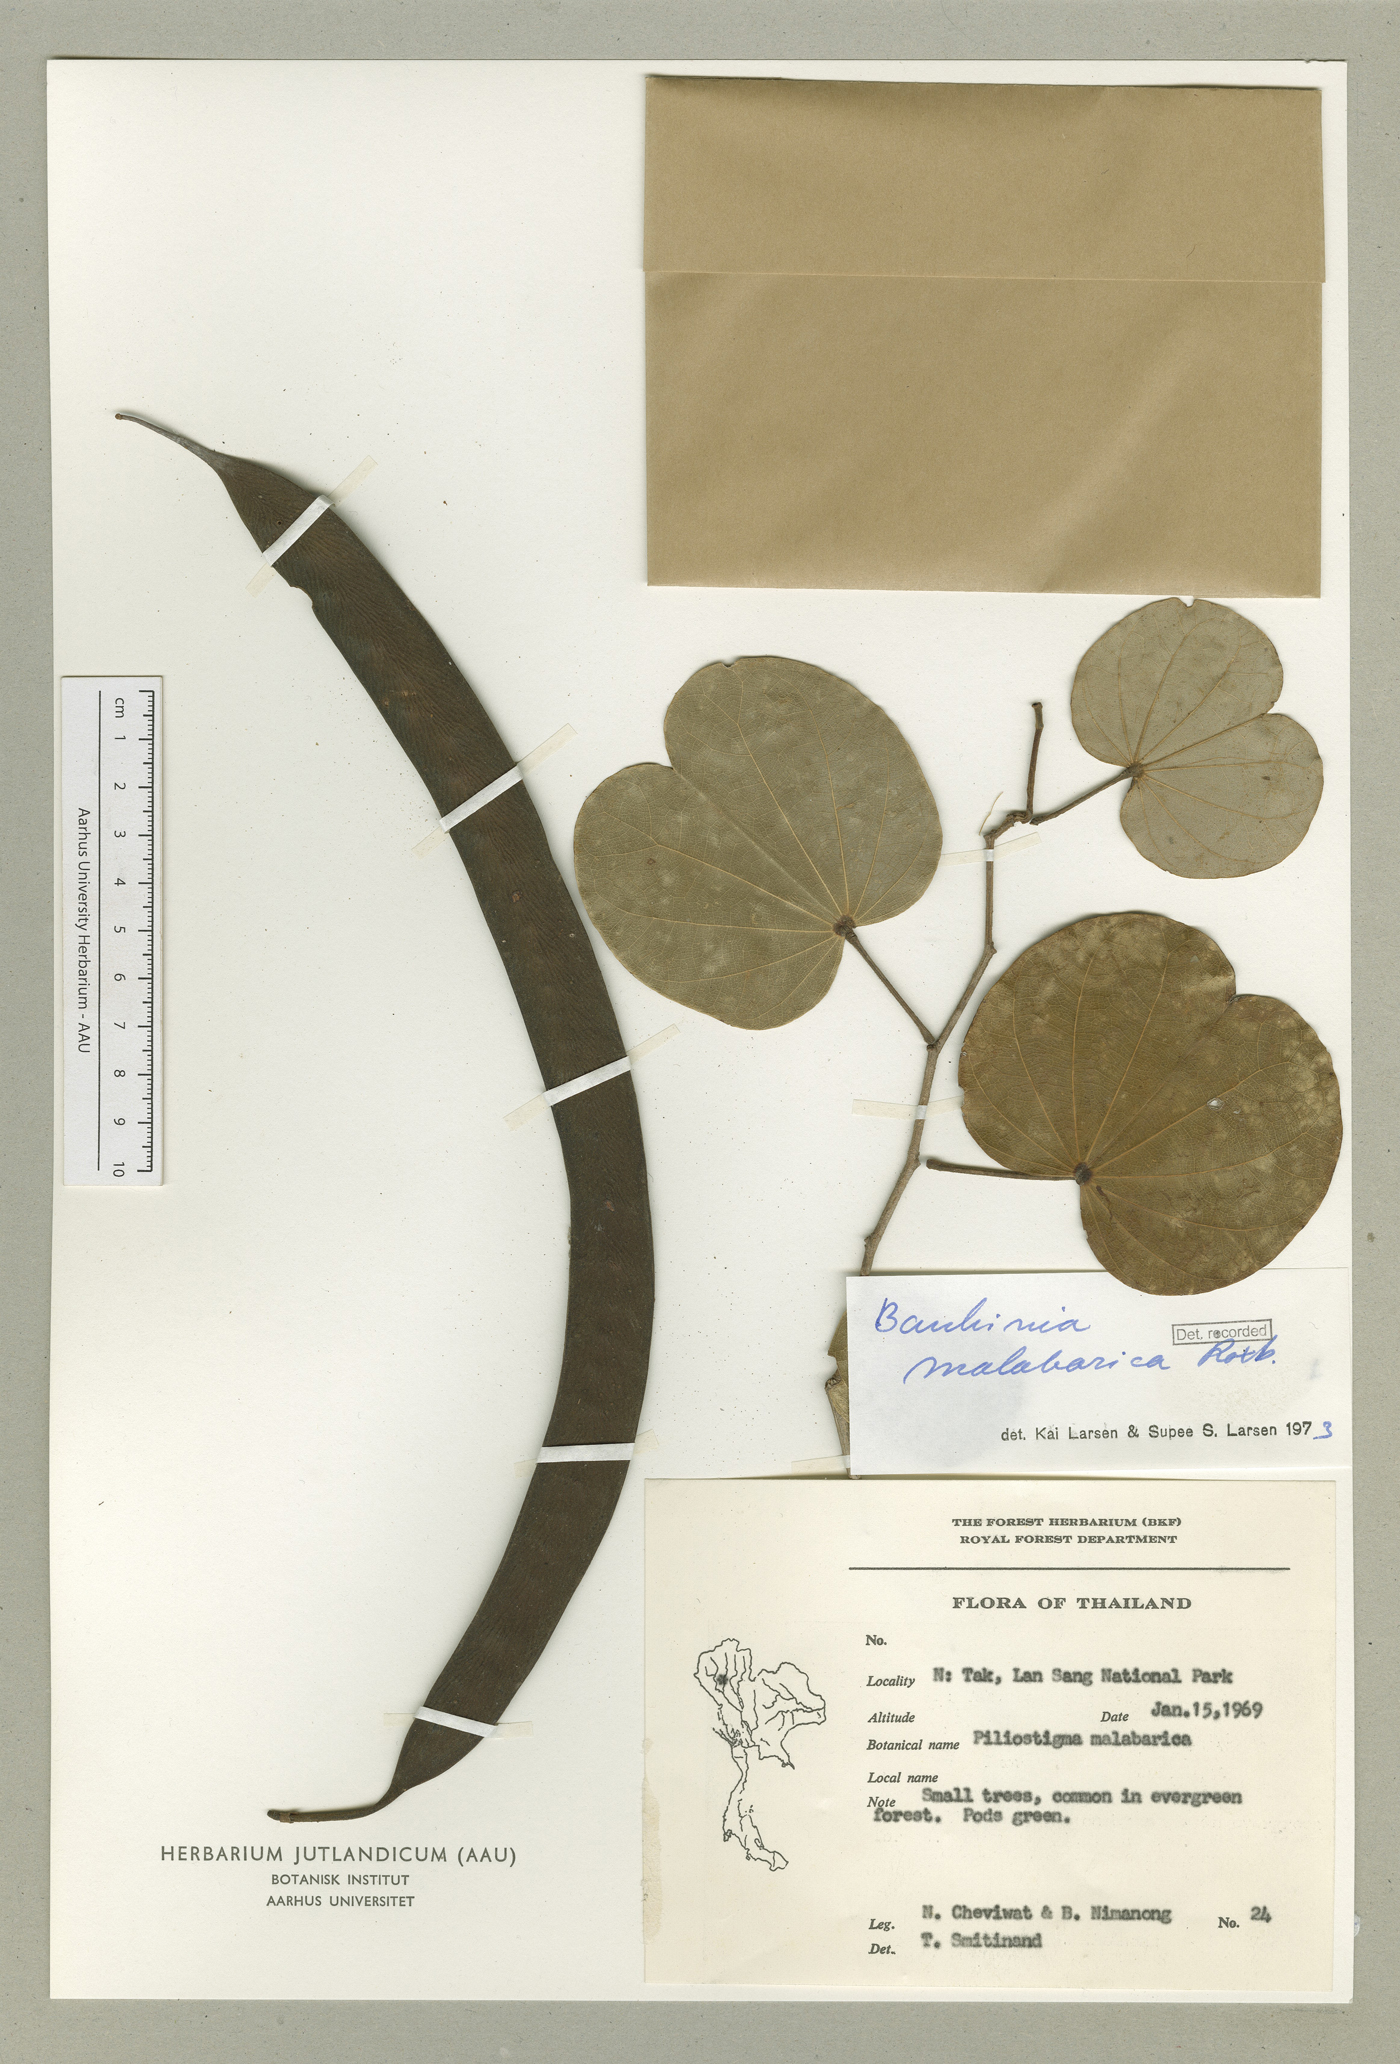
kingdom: Plantae
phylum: Tracheophyta
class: Magnoliopsida
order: Fabales
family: Fabaceae
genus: Piliostigma
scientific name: Piliostigma malabaricum
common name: Malabar bauhinia
